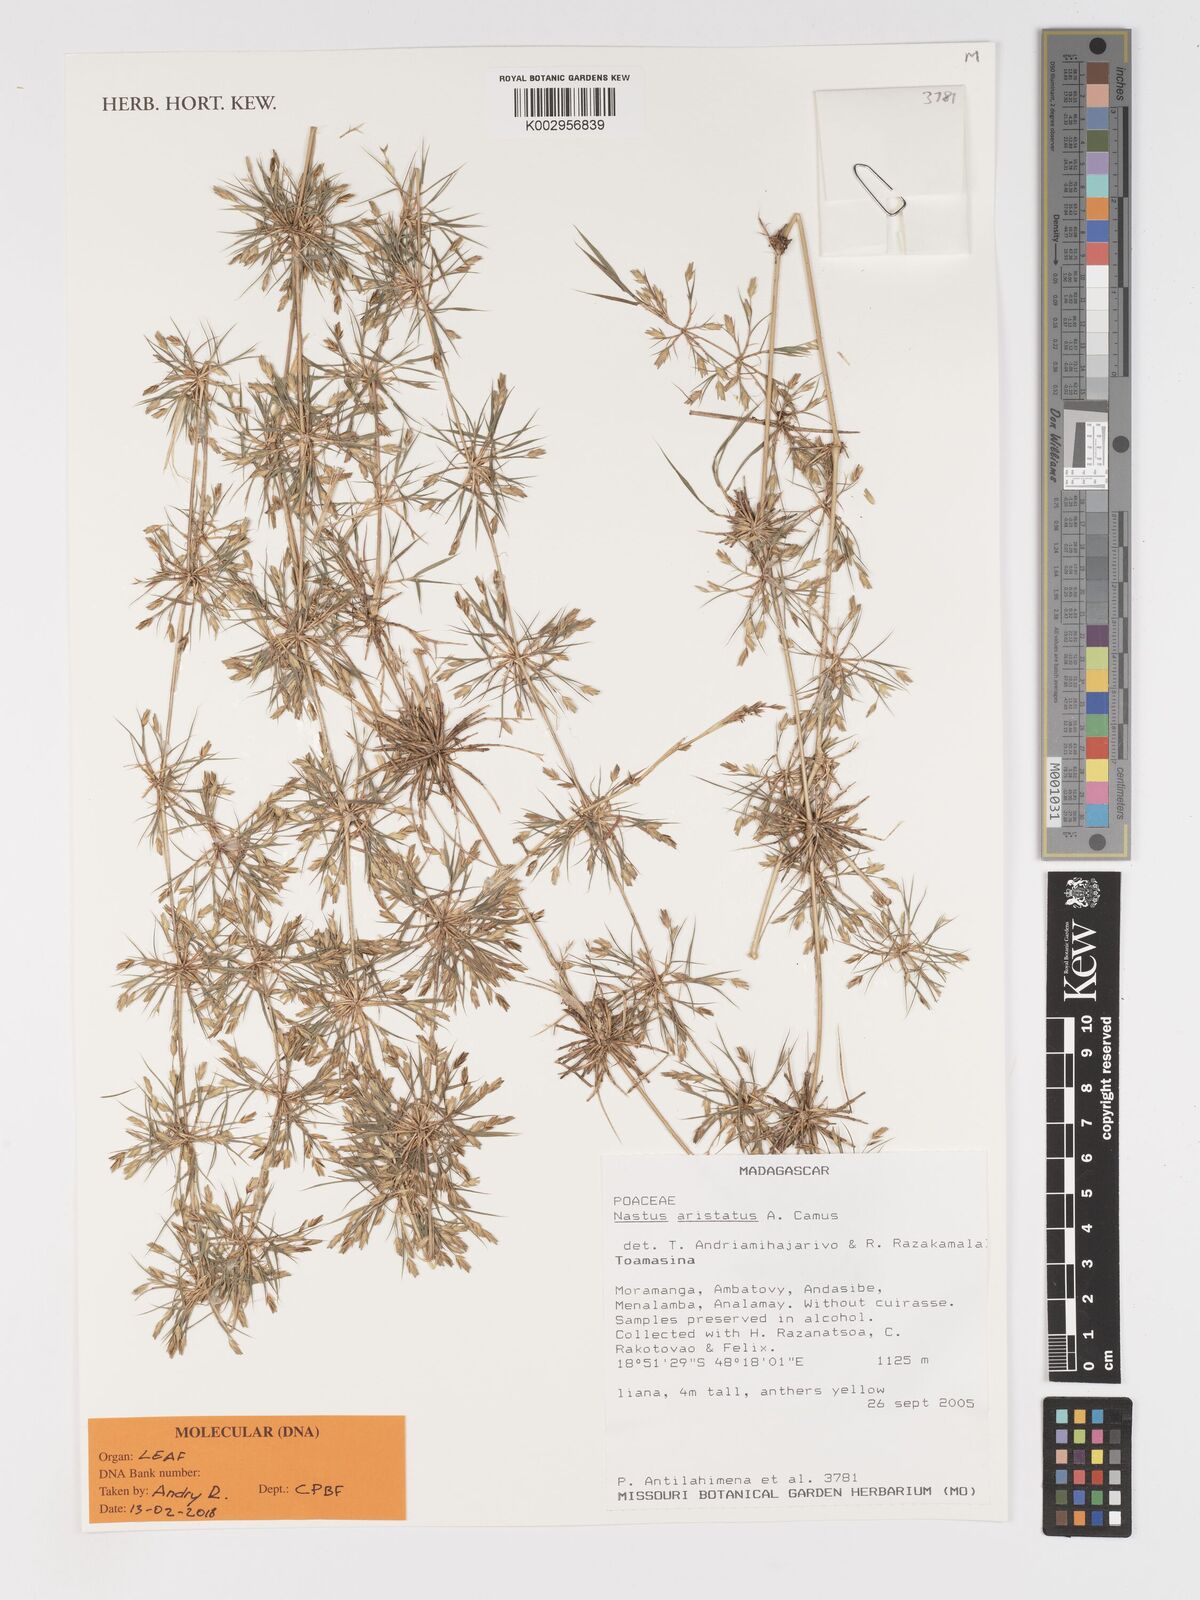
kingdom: Plantae
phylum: Tracheophyta
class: Liliopsida
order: Poales
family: Poaceae
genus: Nastus
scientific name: Nastus aristatus
